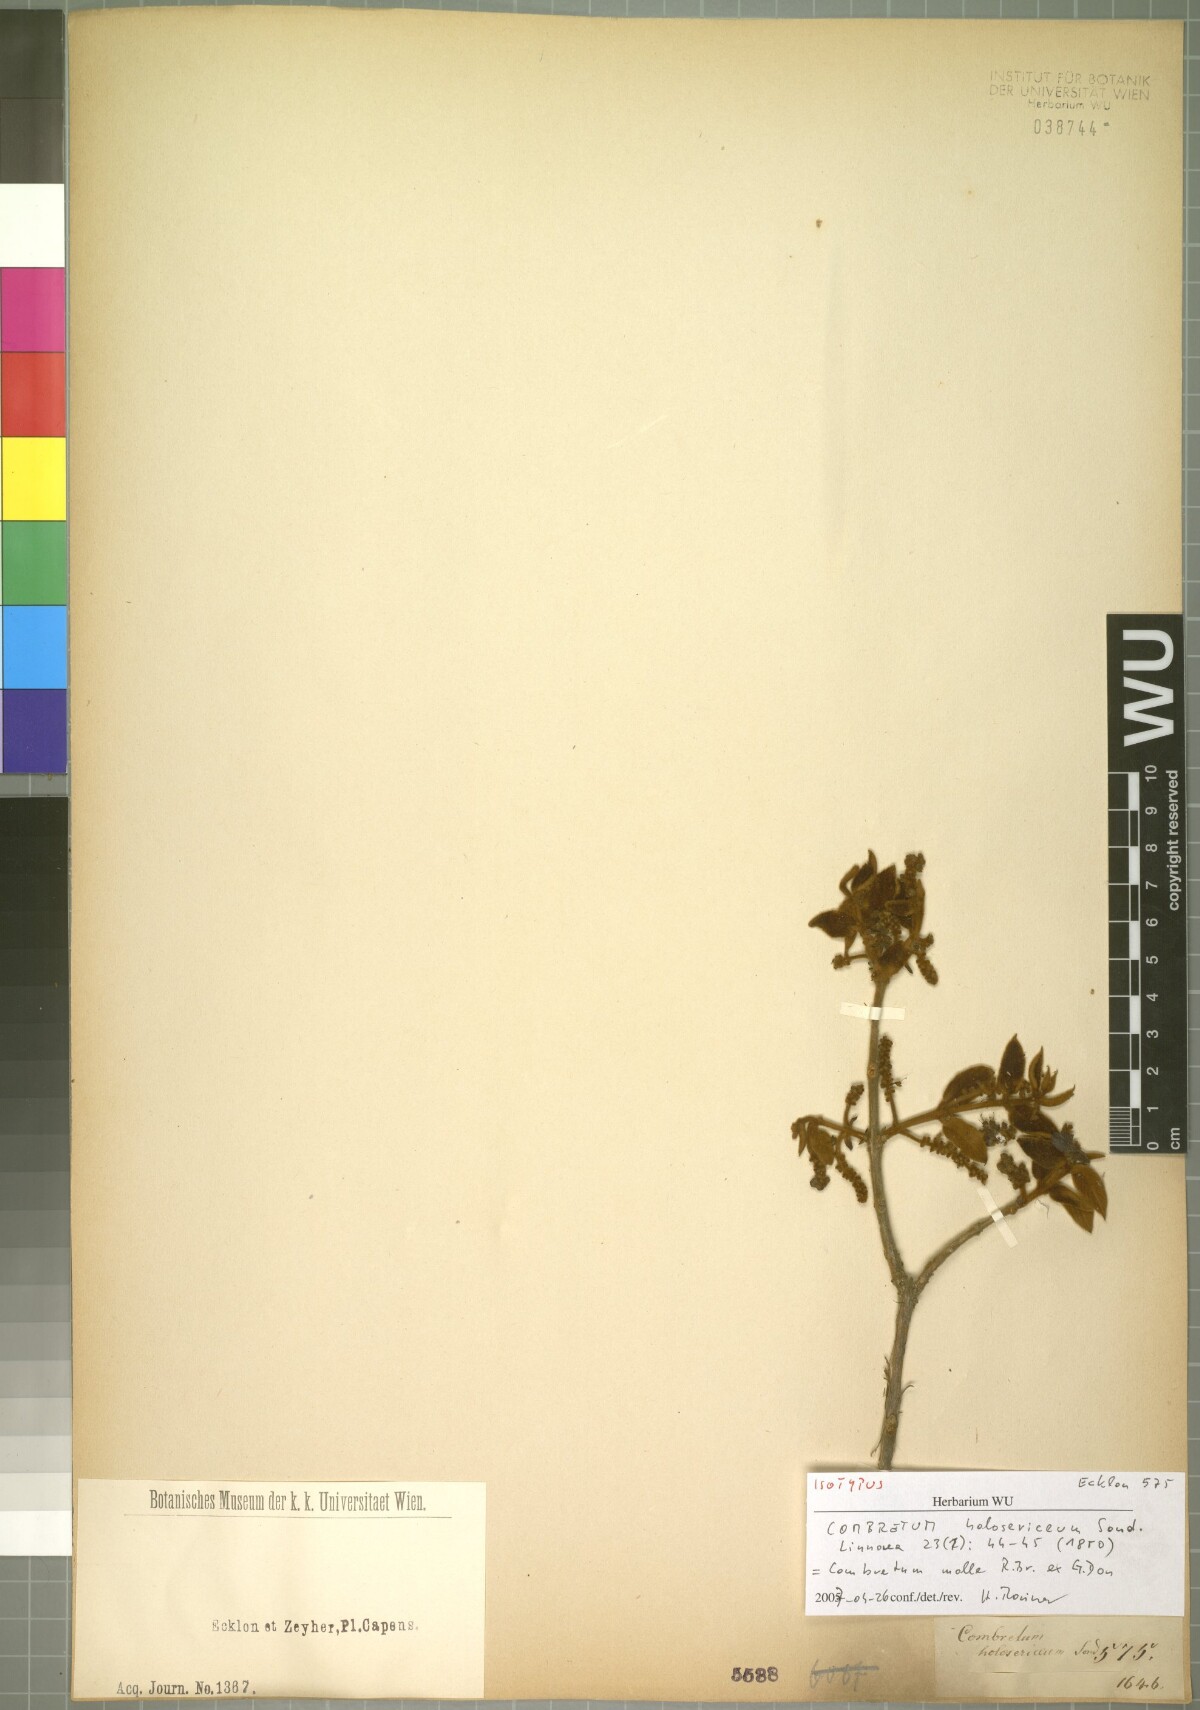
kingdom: Plantae
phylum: Tracheophyta
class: Magnoliopsida
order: Myrtales
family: Combretaceae
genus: Combretum
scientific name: Combretum molle
